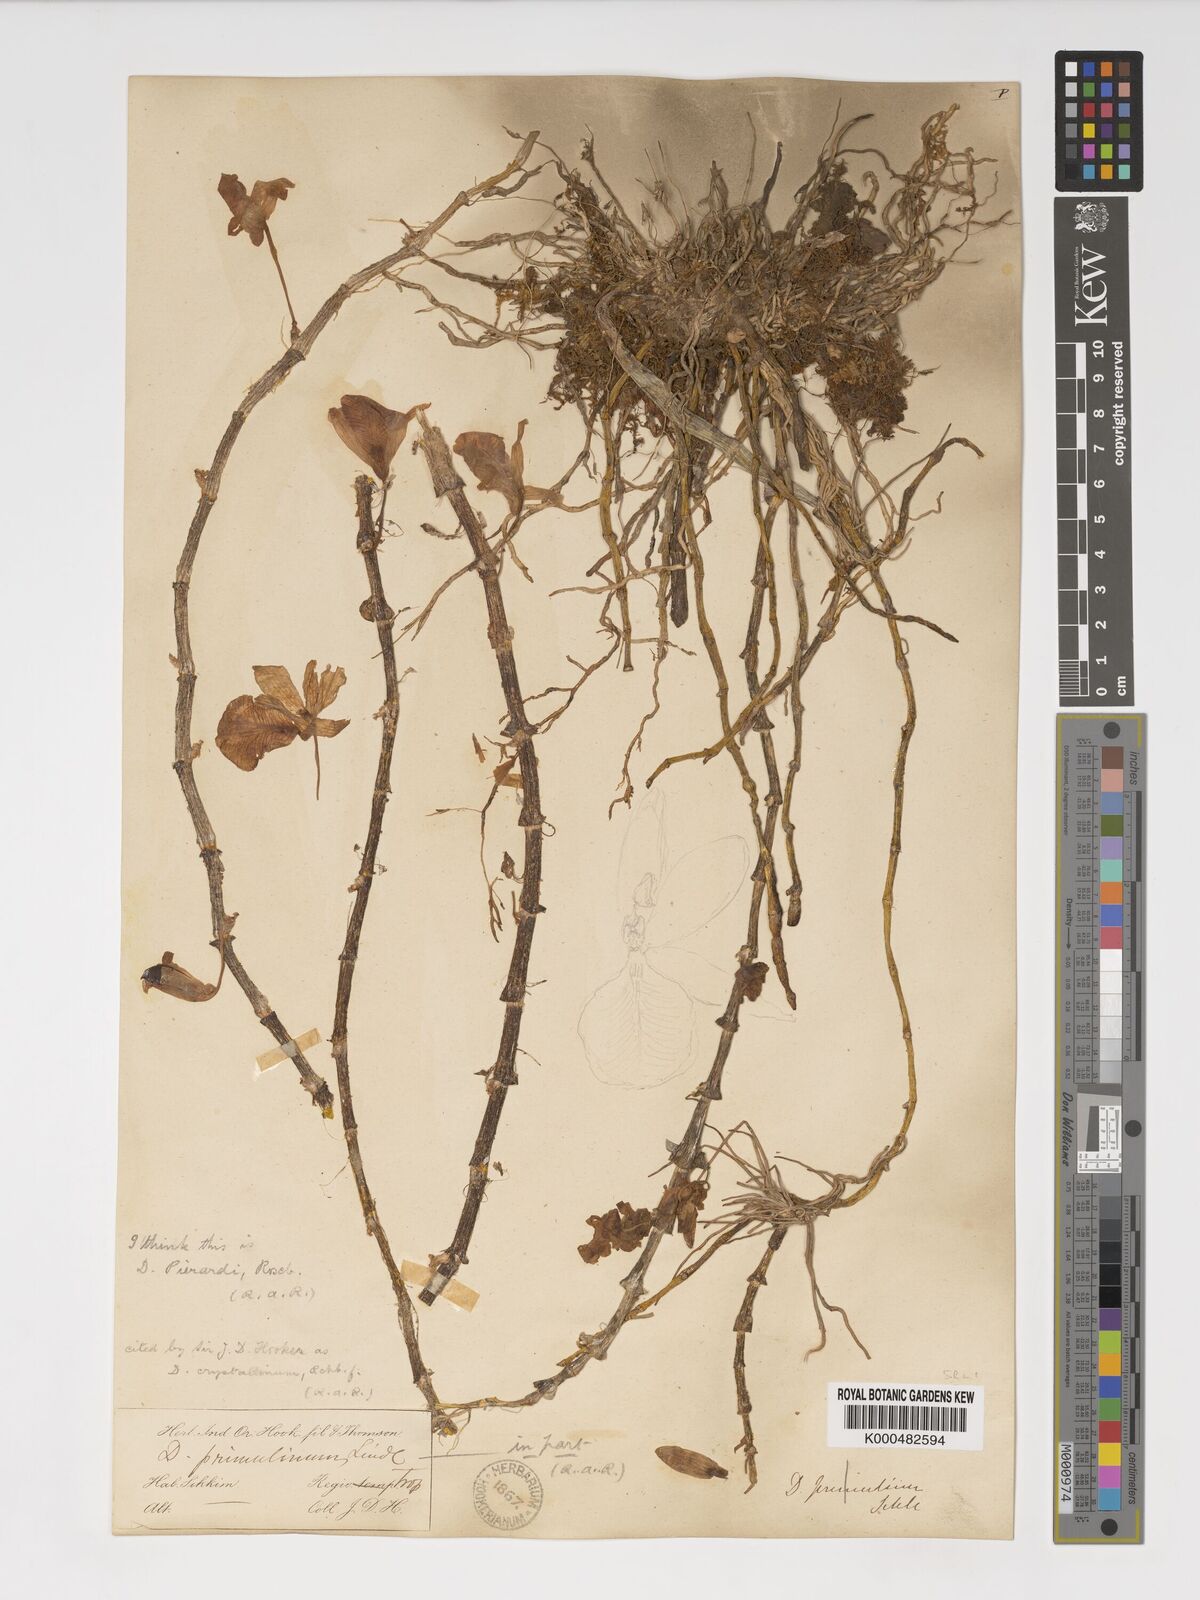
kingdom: Plantae
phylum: Tracheophyta
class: Liliopsida
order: Asparagales
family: Orchidaceae
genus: Dendrobium
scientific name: Dendrobium macrostachyum
